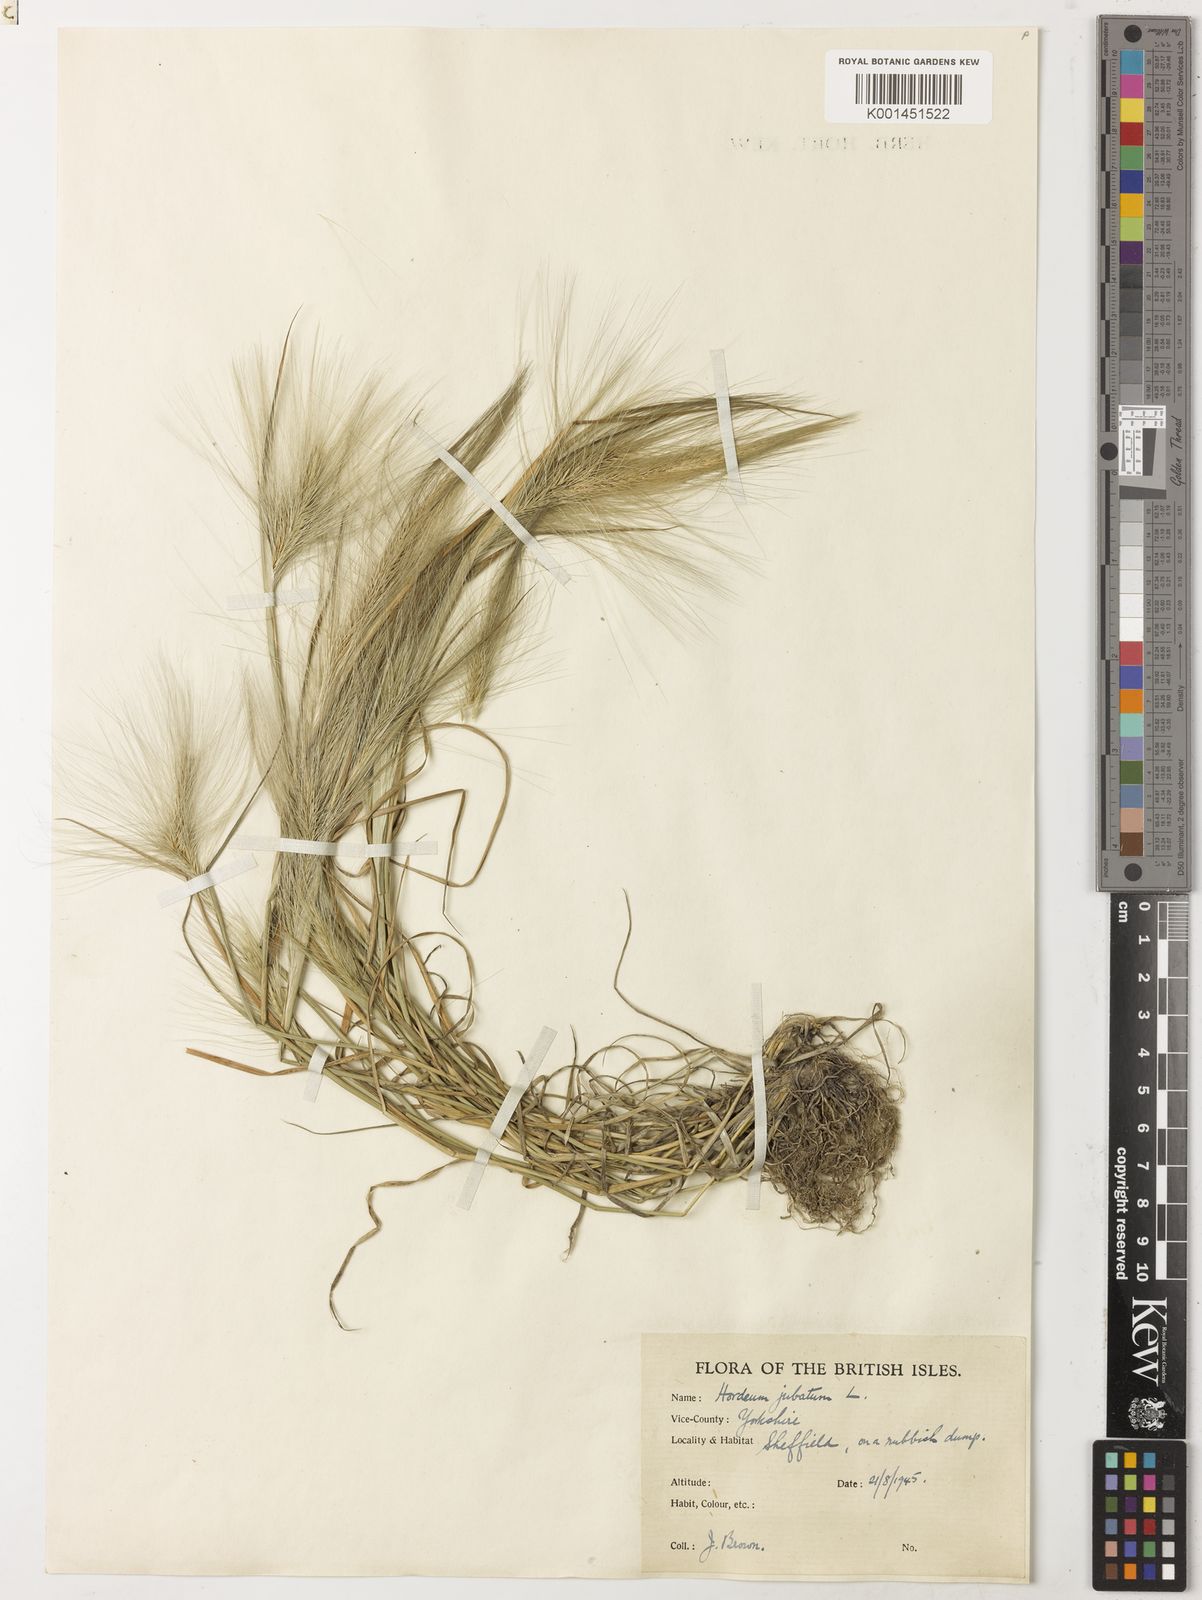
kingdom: Plantae
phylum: Tracheophyta
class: Liliopsida
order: Poales
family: Poaceae
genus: Hordeum
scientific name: Hordeum jubatum
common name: Foxtail barley
